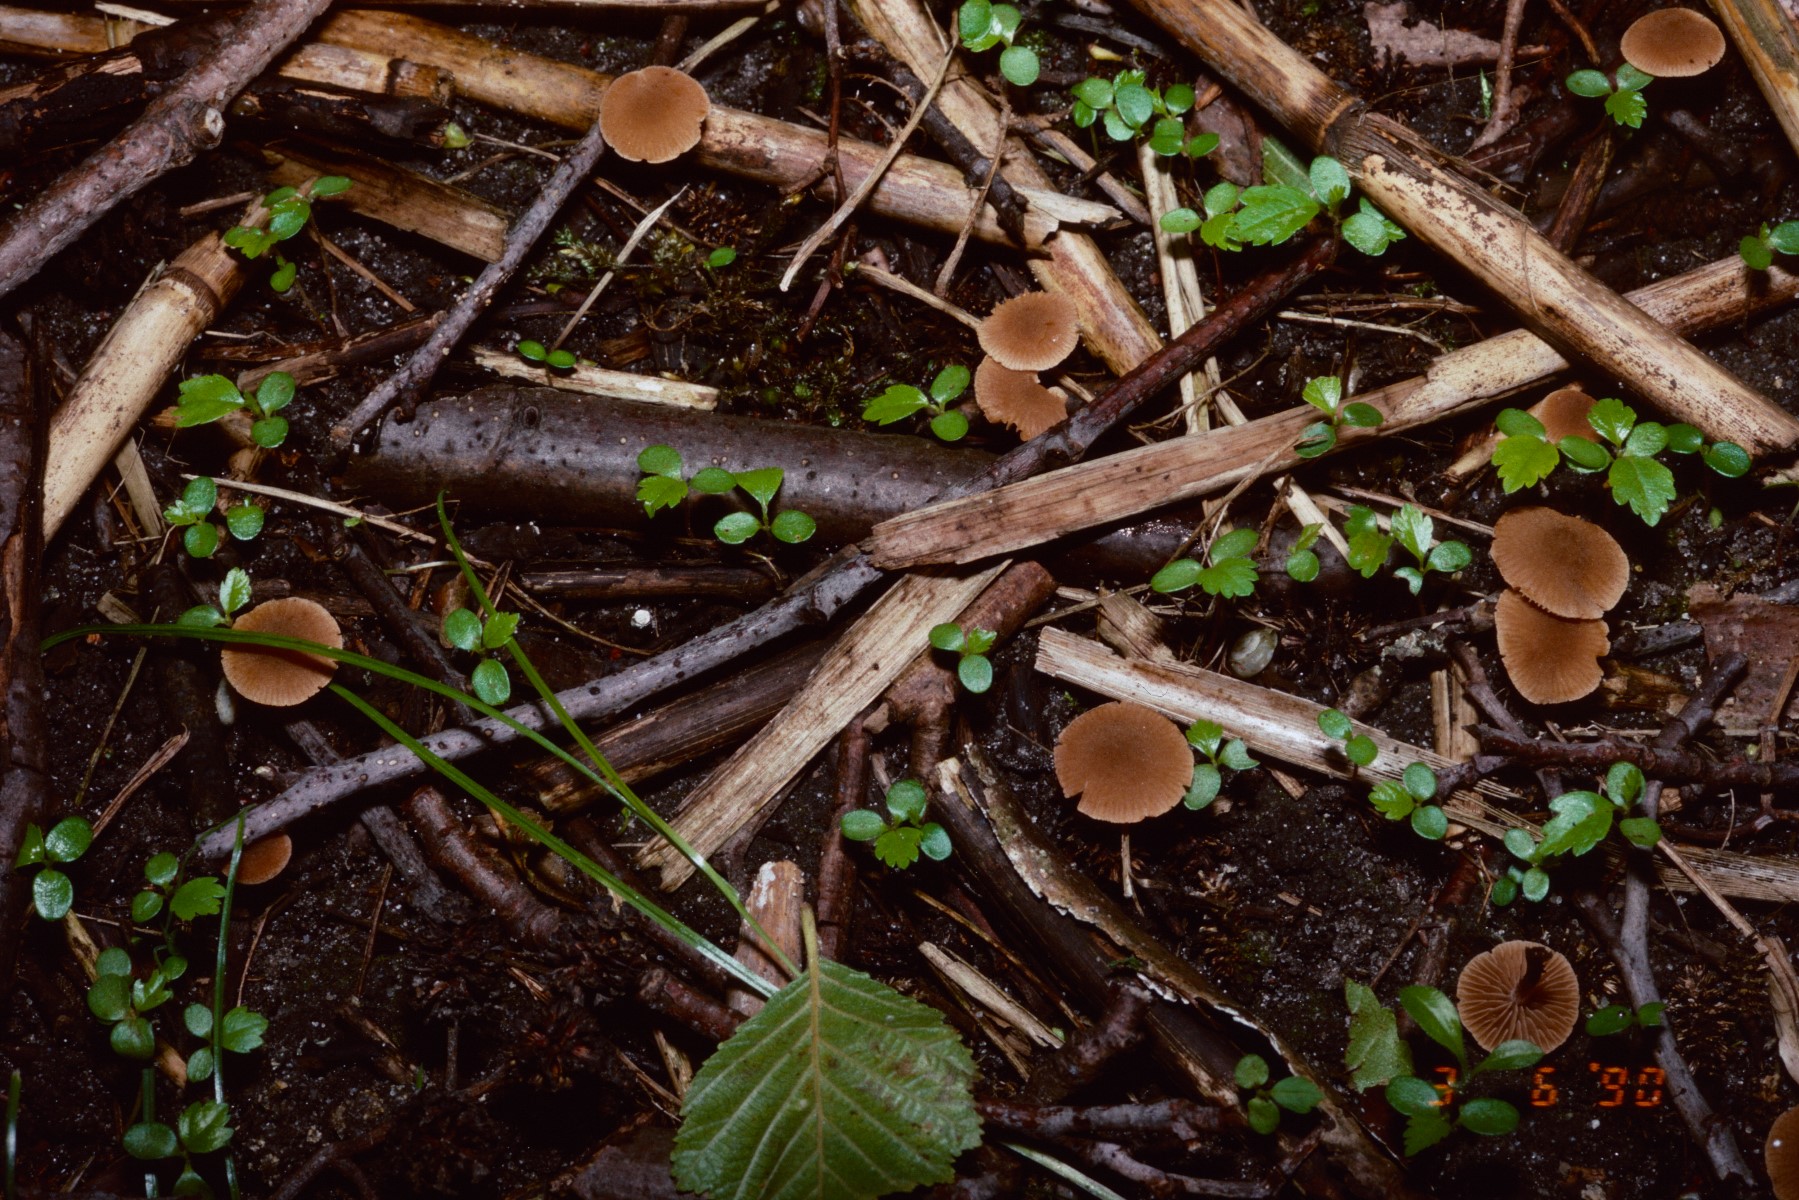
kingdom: Fungi
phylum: Basidiomycota
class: Agaricomycetes
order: Agaricales
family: Hymenogastraceae
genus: Naucoria
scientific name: Naucoria scolecina
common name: mørk elle-knaphat
